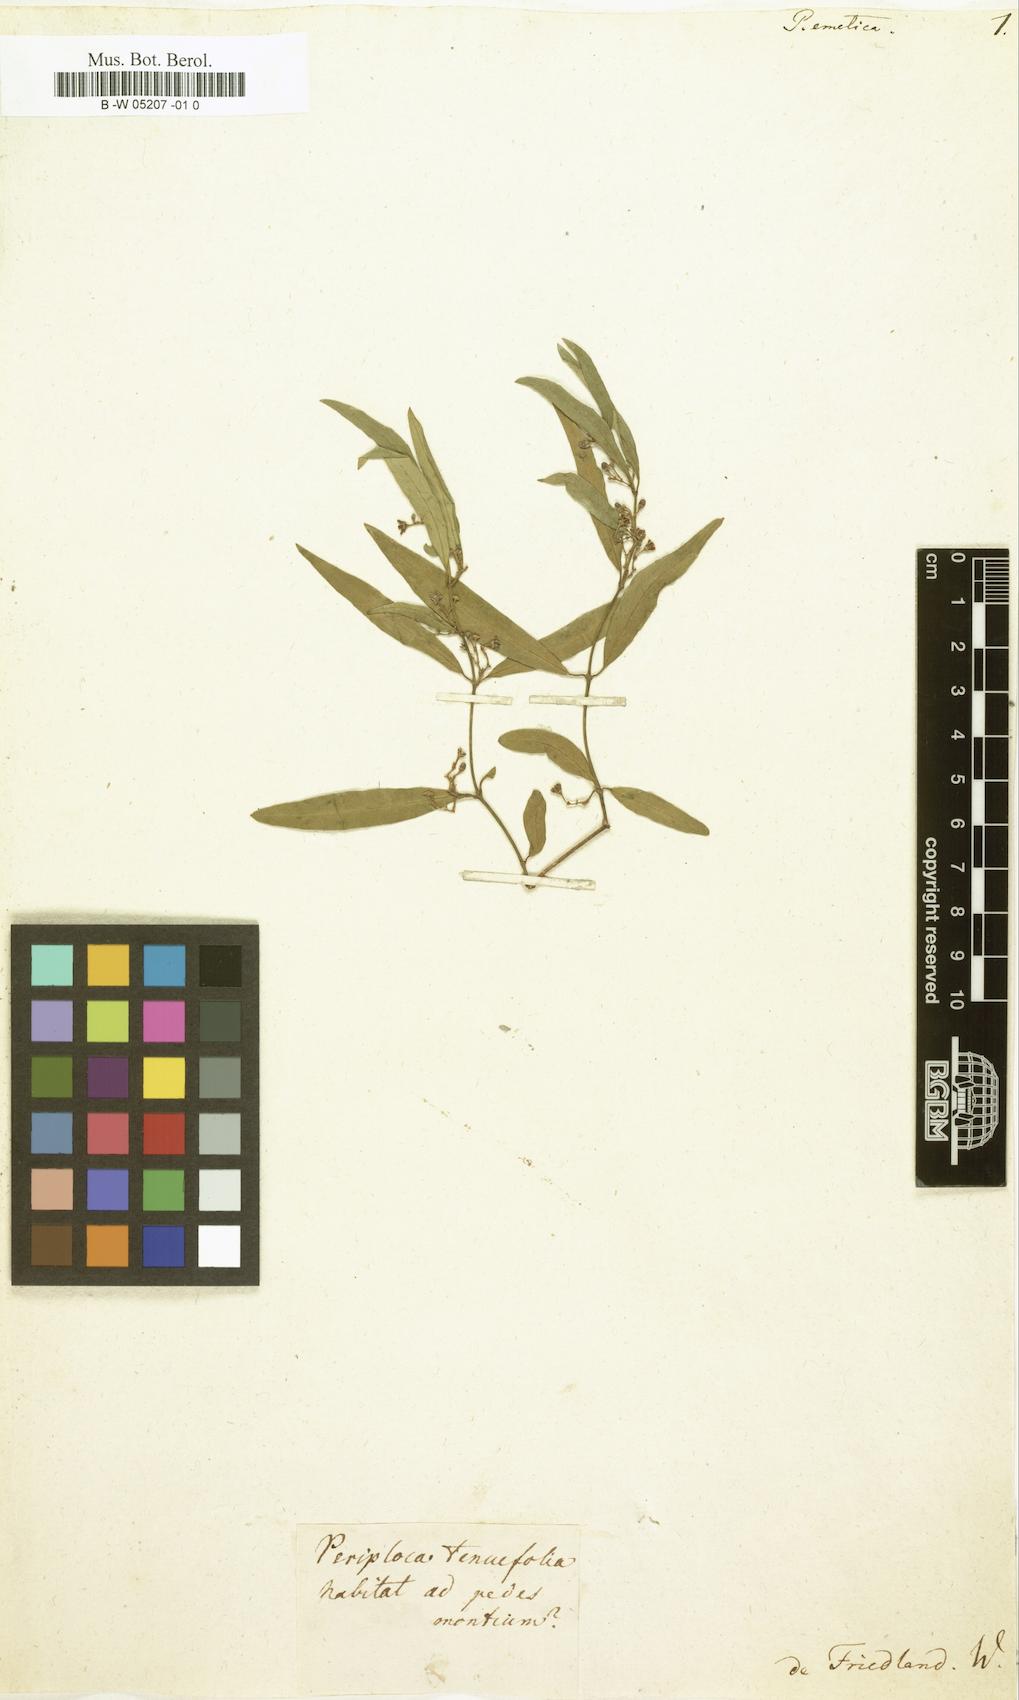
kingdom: Plantae
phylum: Tracheophyta
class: Magnoliopsida
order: Gentianales
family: Apocynaceae
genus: Secamone
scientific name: Secamone emetica
